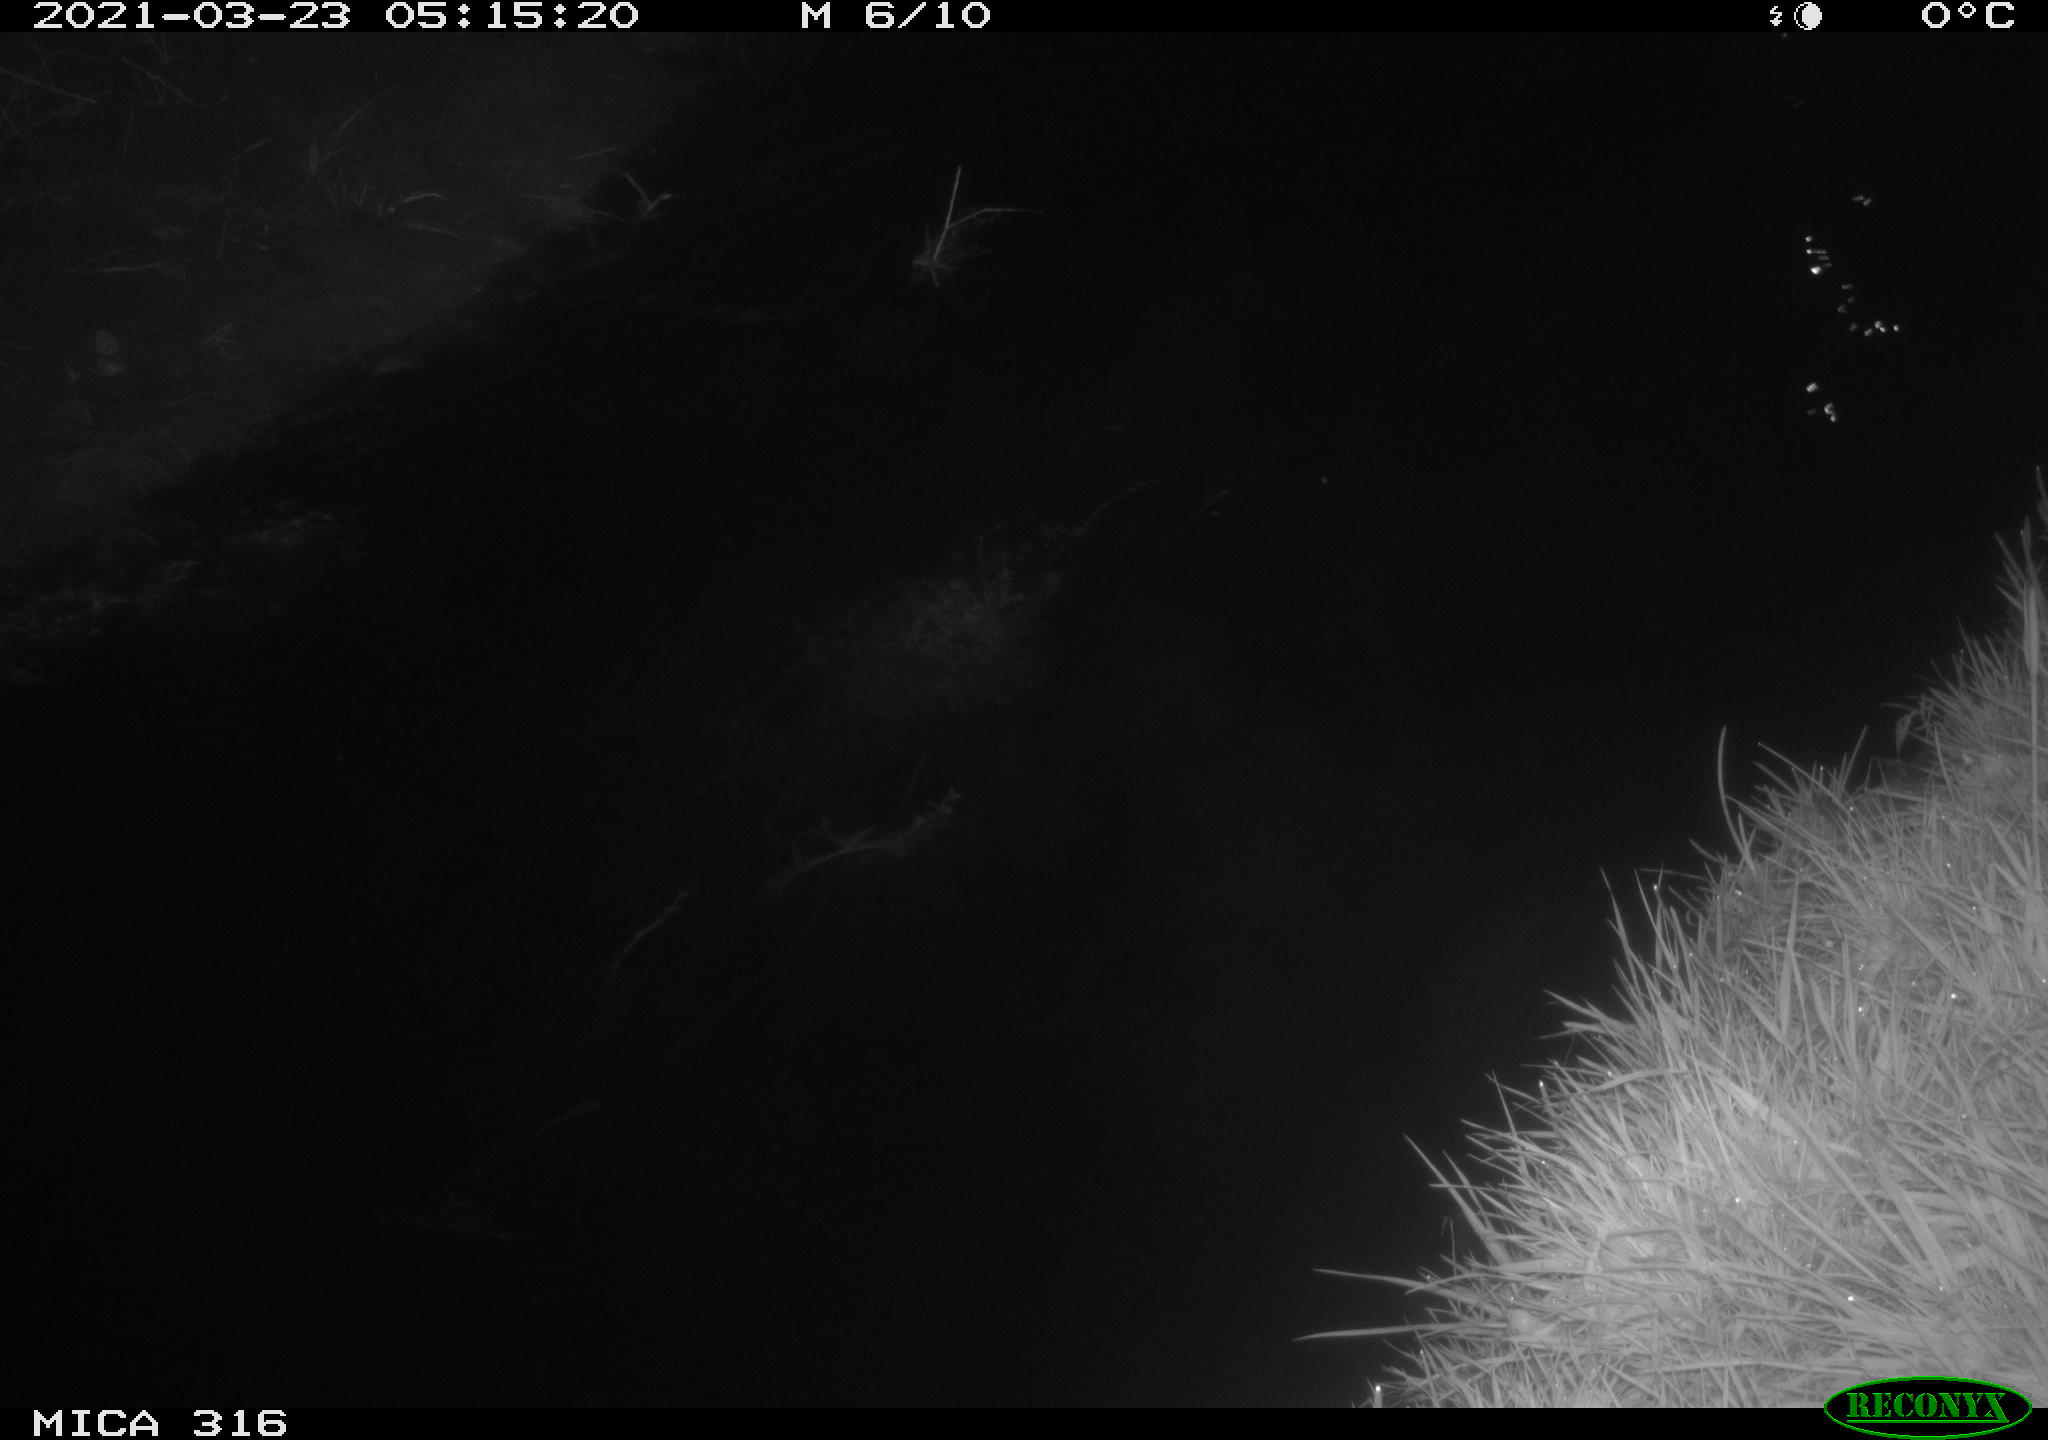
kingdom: Animalia
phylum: Chordata
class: Aves
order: Anseriformes
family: Anatidae
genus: Anas
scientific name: Anas platyrhynchos
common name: Mallard
